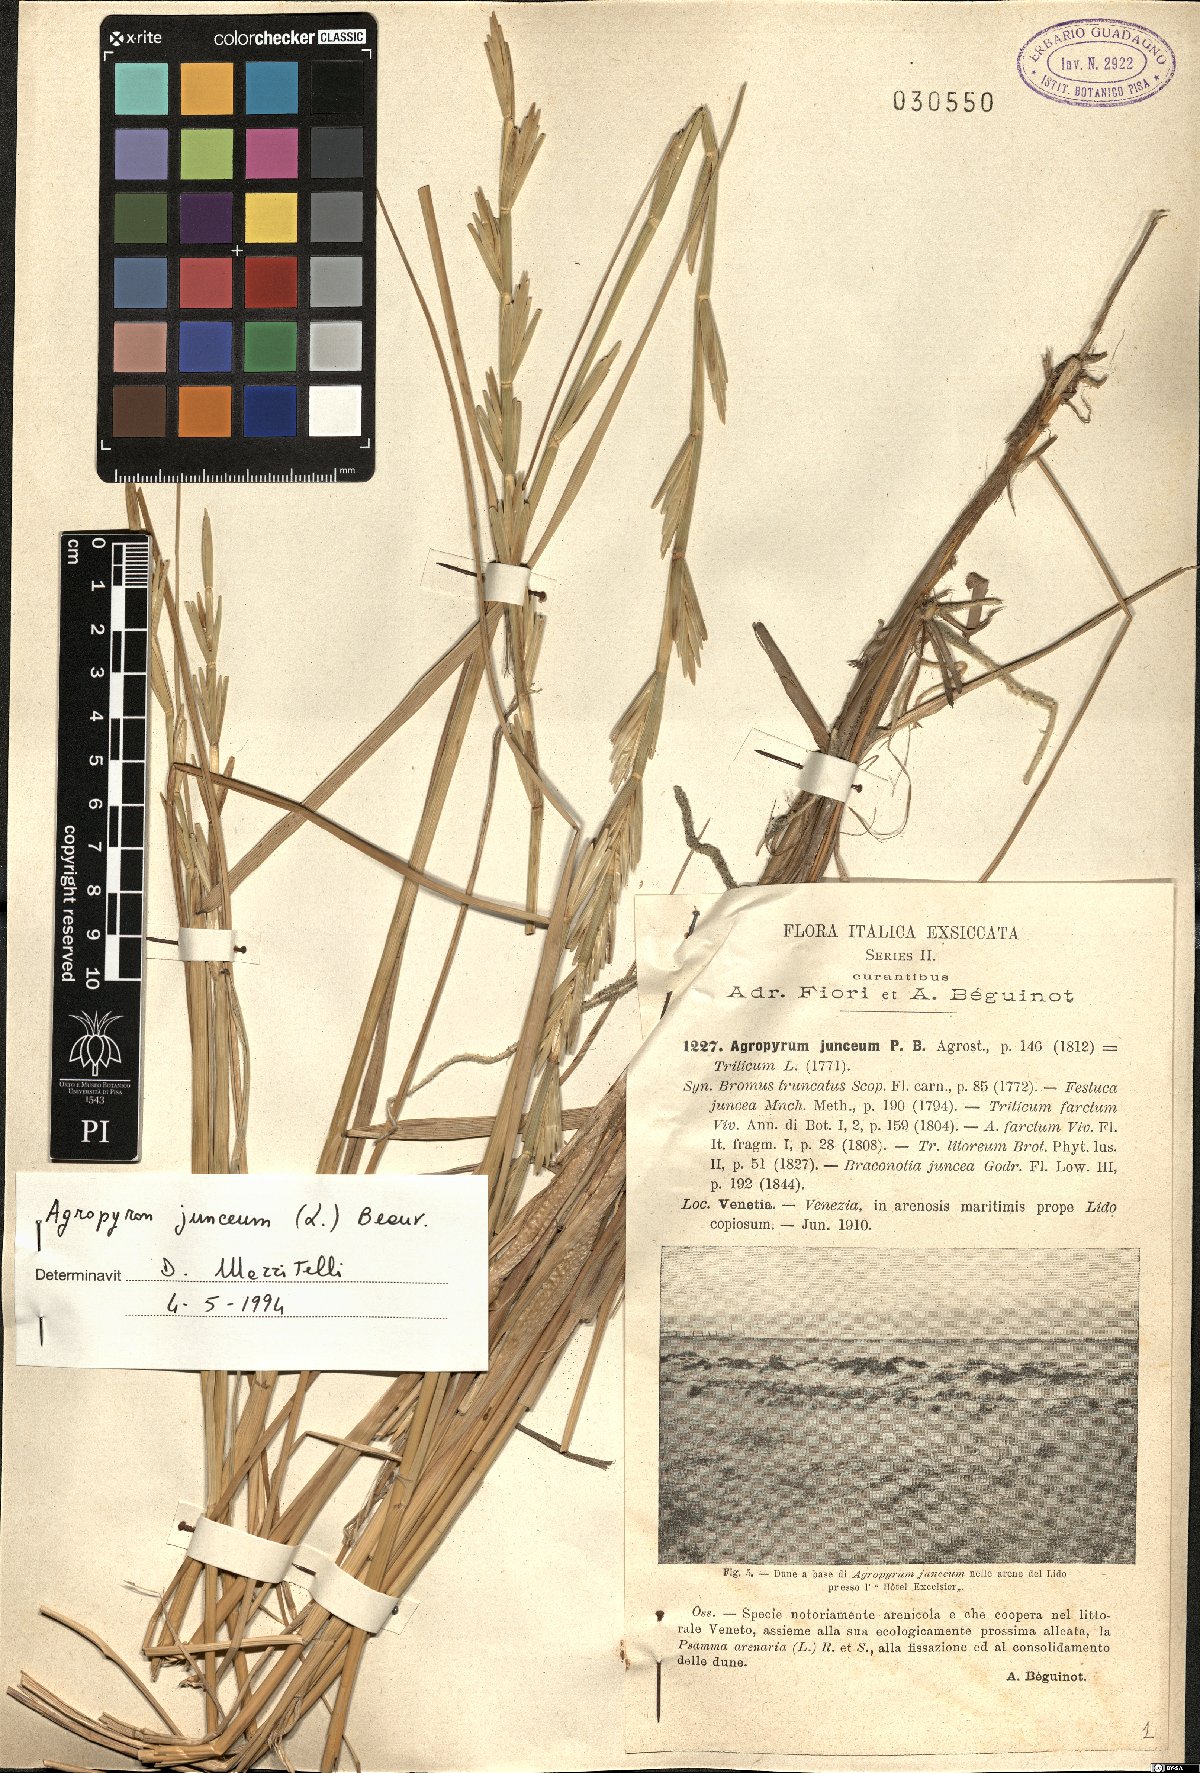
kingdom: Plantae
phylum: Tracheophyta
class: Liliopsida
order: Poales
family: Poaceae
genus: Thinopyrum
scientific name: Thinopyrum junceum
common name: Russian wheatgrass
